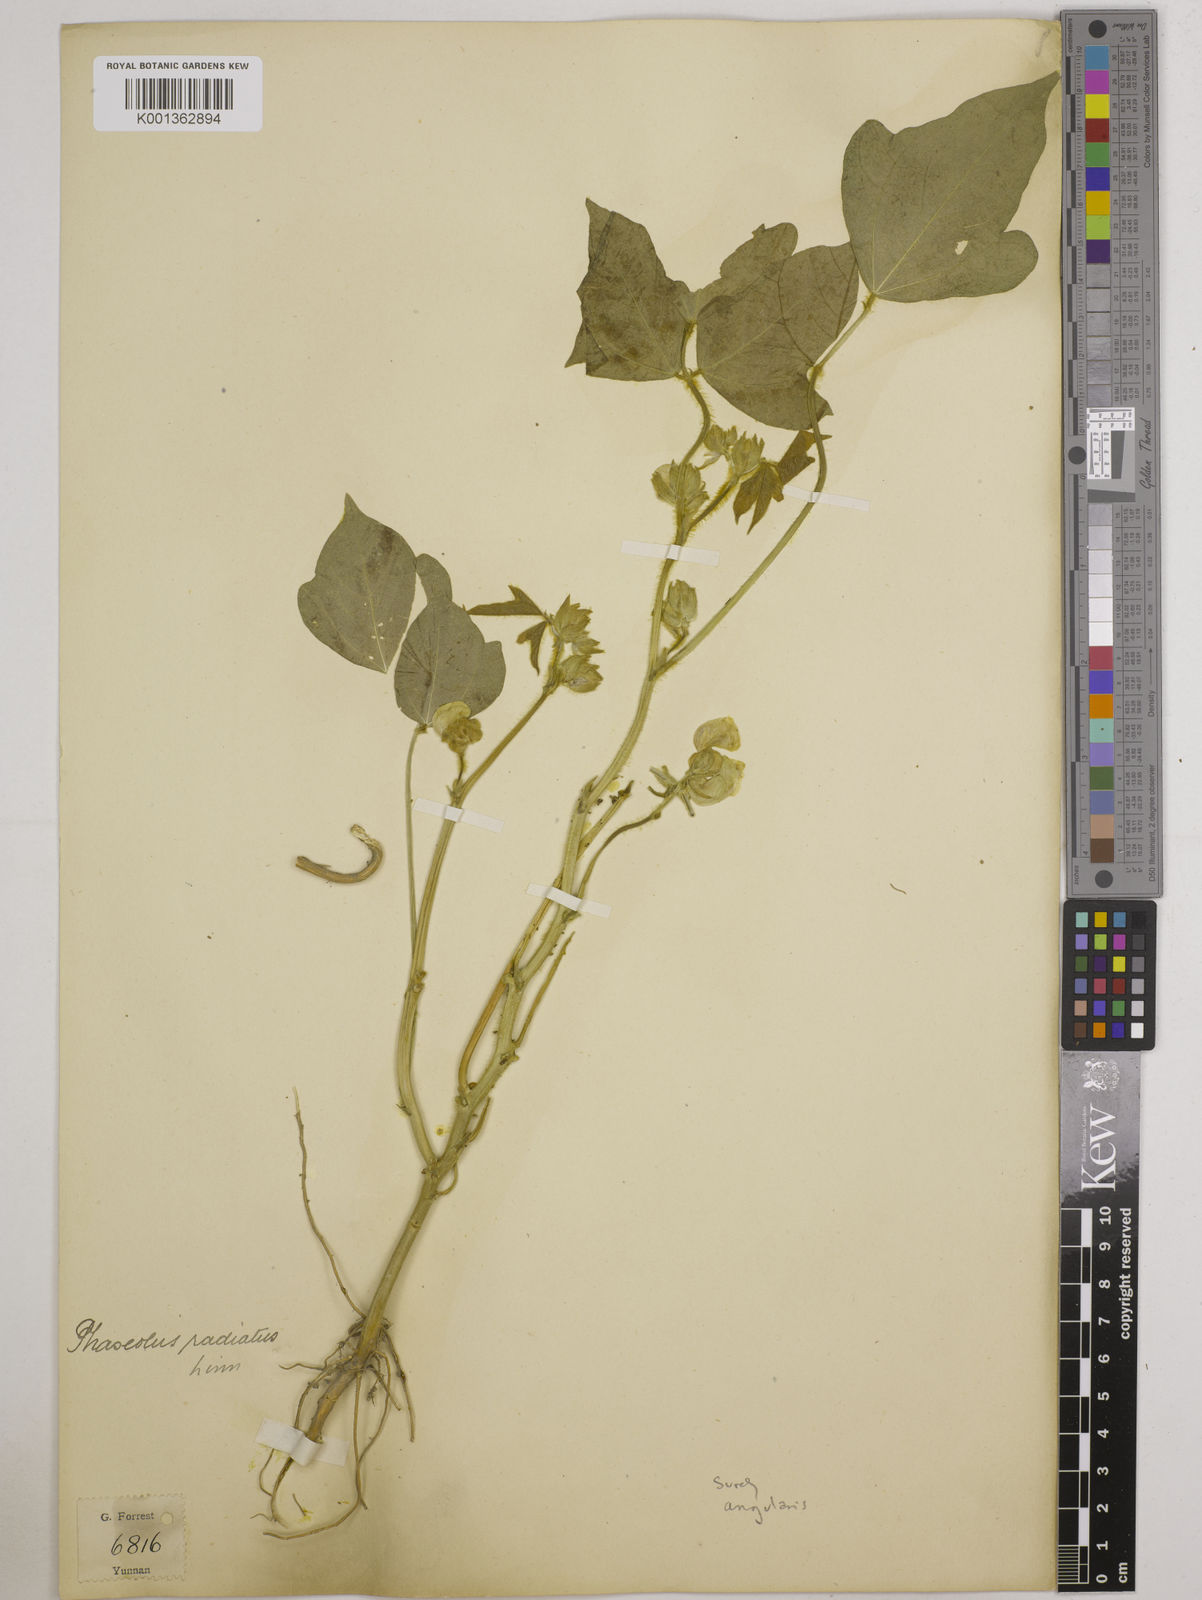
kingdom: Plantae
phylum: Tracheophyta
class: Magnoliopsida
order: Fabales
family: Fabaceae
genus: Vigna
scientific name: Vigna angularis
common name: Adzuki bean
